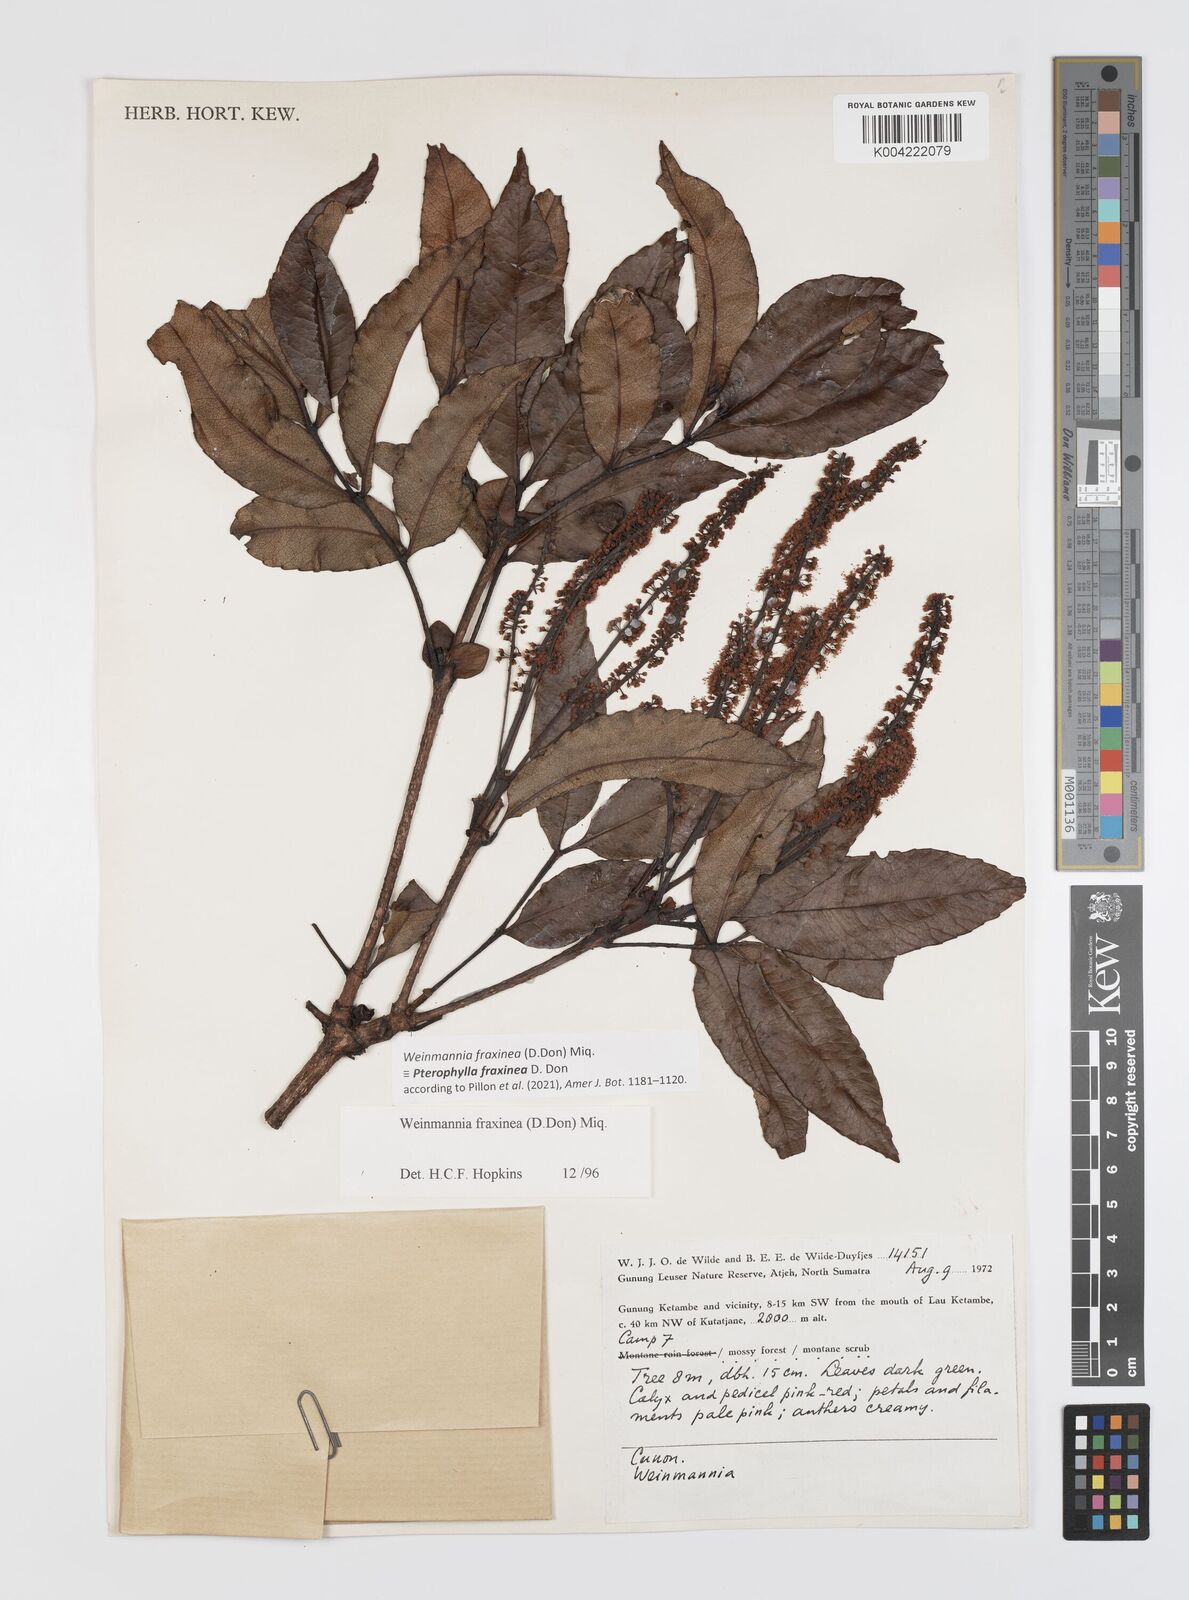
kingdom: Plantae
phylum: Tracheophyta
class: Magnoliopsida
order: Oxalidales
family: Cunoniaceae
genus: Pterophylla
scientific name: Pterophylla fraxinea
